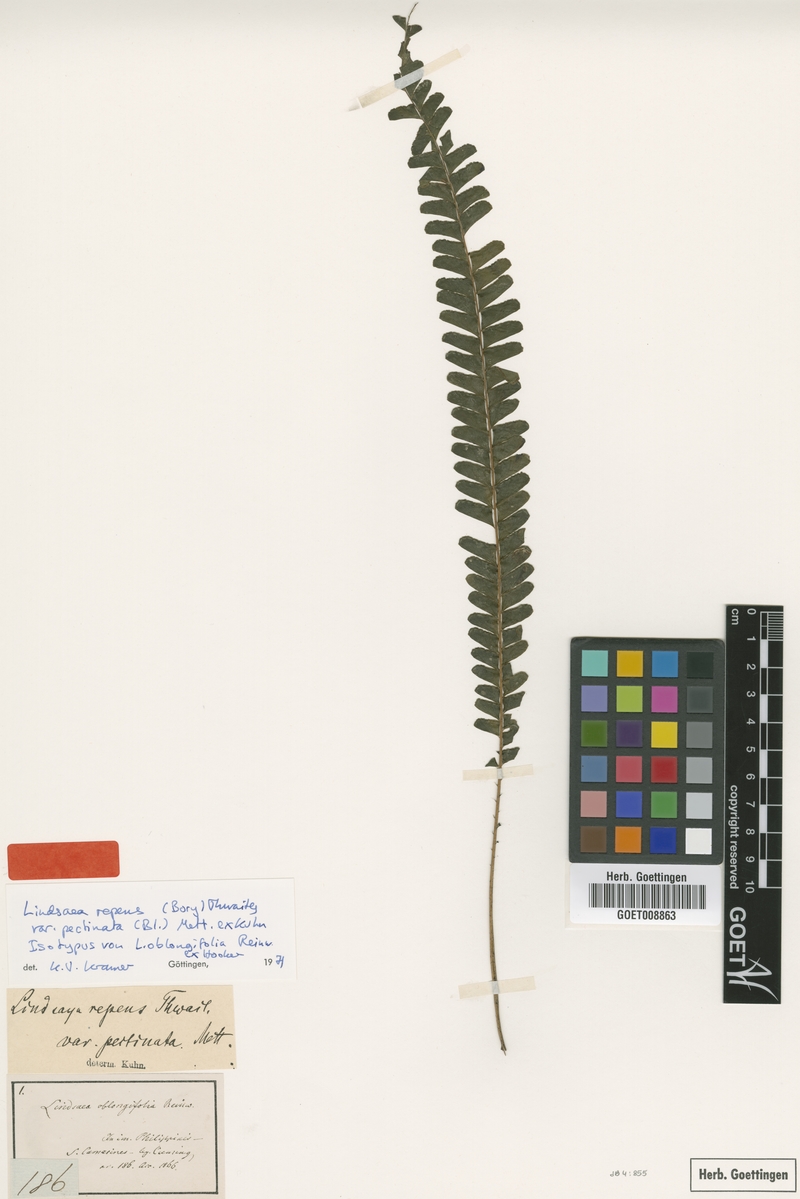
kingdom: Plantae
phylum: Tracheophyta
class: Polypodiopsida
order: Polypodiales
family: Lindsaeaceae
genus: Lindsaea
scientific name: Lindsaea pectinata
